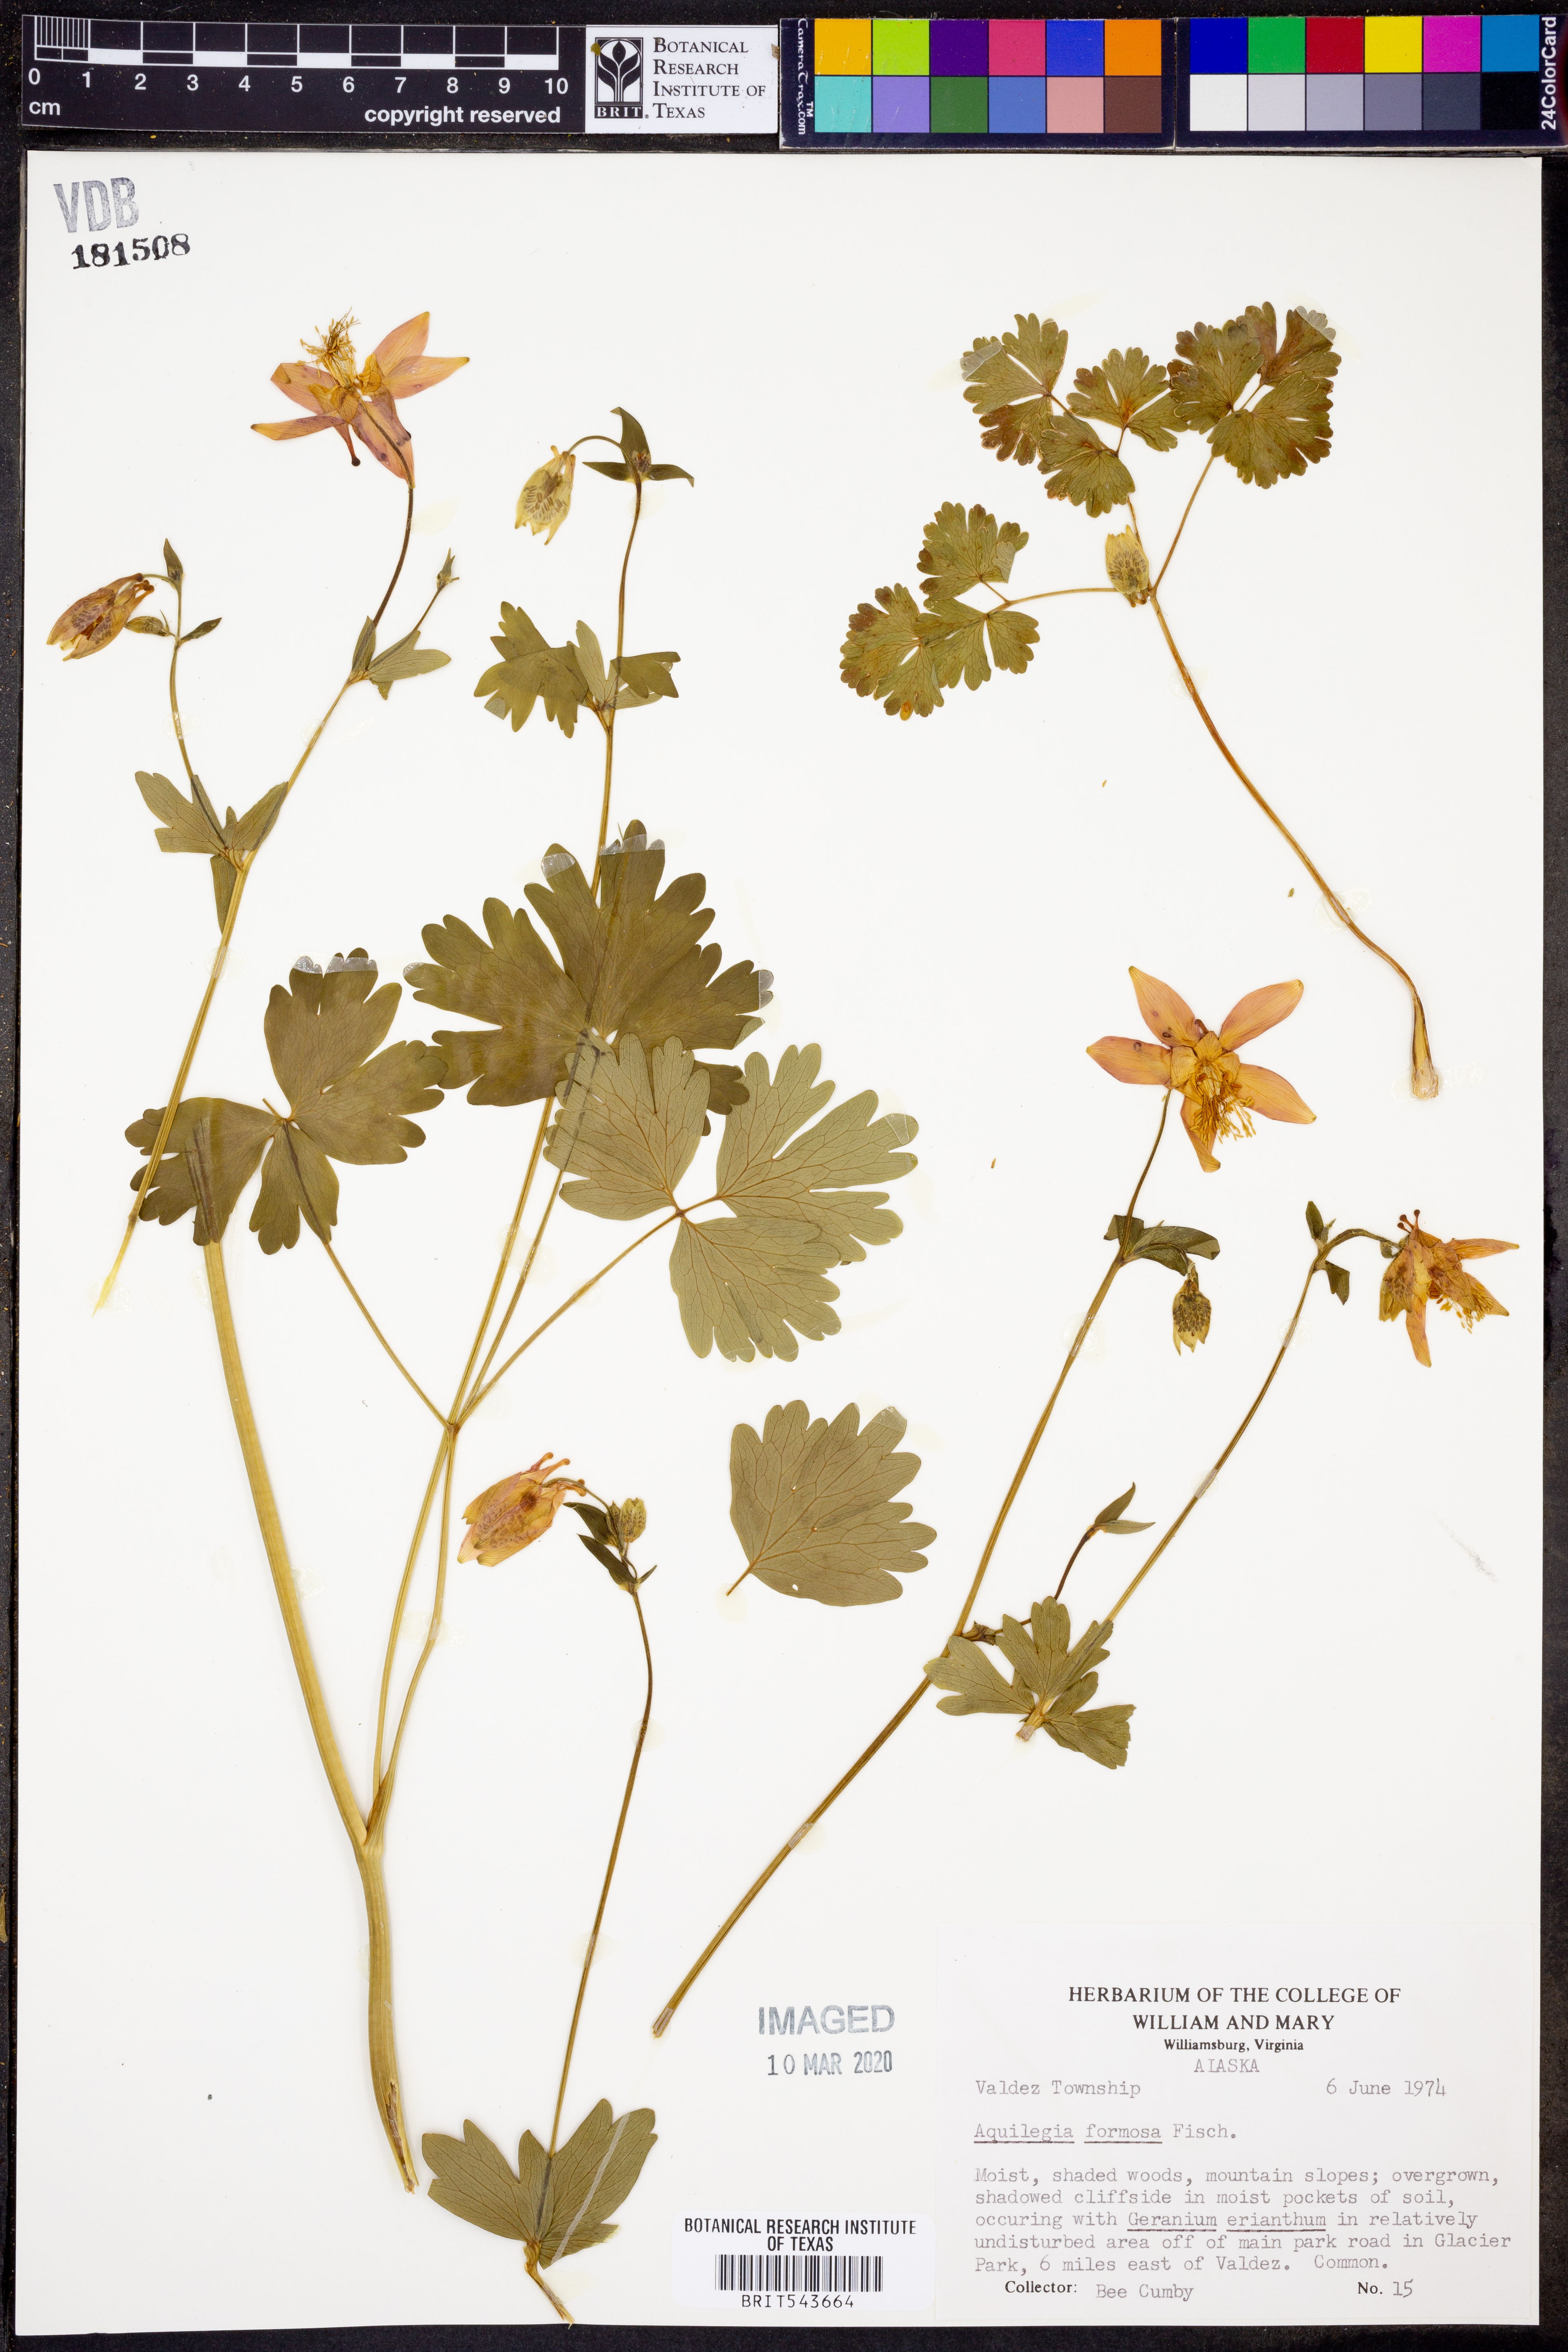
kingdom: Plantae
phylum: Tracheophyta
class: Magnoliopsida
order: Ranunculales
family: Ranunculaceae
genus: Aquilegia
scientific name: Aquilegia formosa
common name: Sitka columbine
